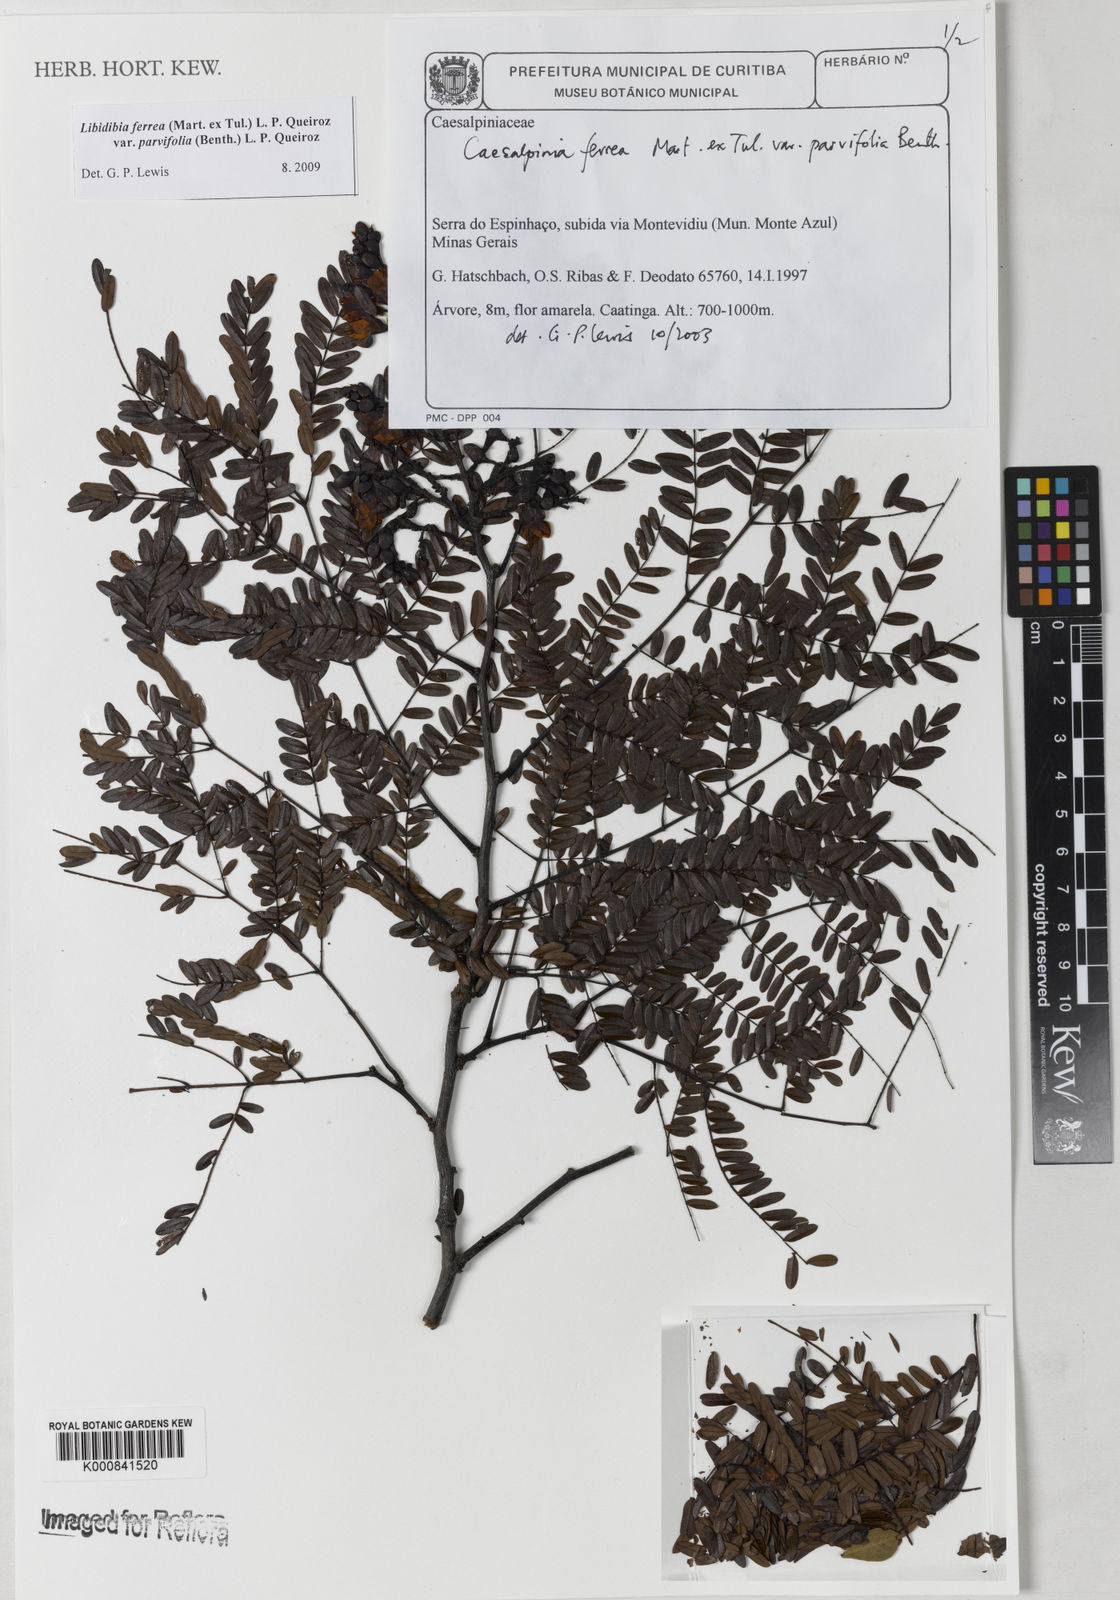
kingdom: Plantae
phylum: Tracheophyta
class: Magnoliopsida
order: Fabales
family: Fabaceae
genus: Libidibia
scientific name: Libidibia ferrea
